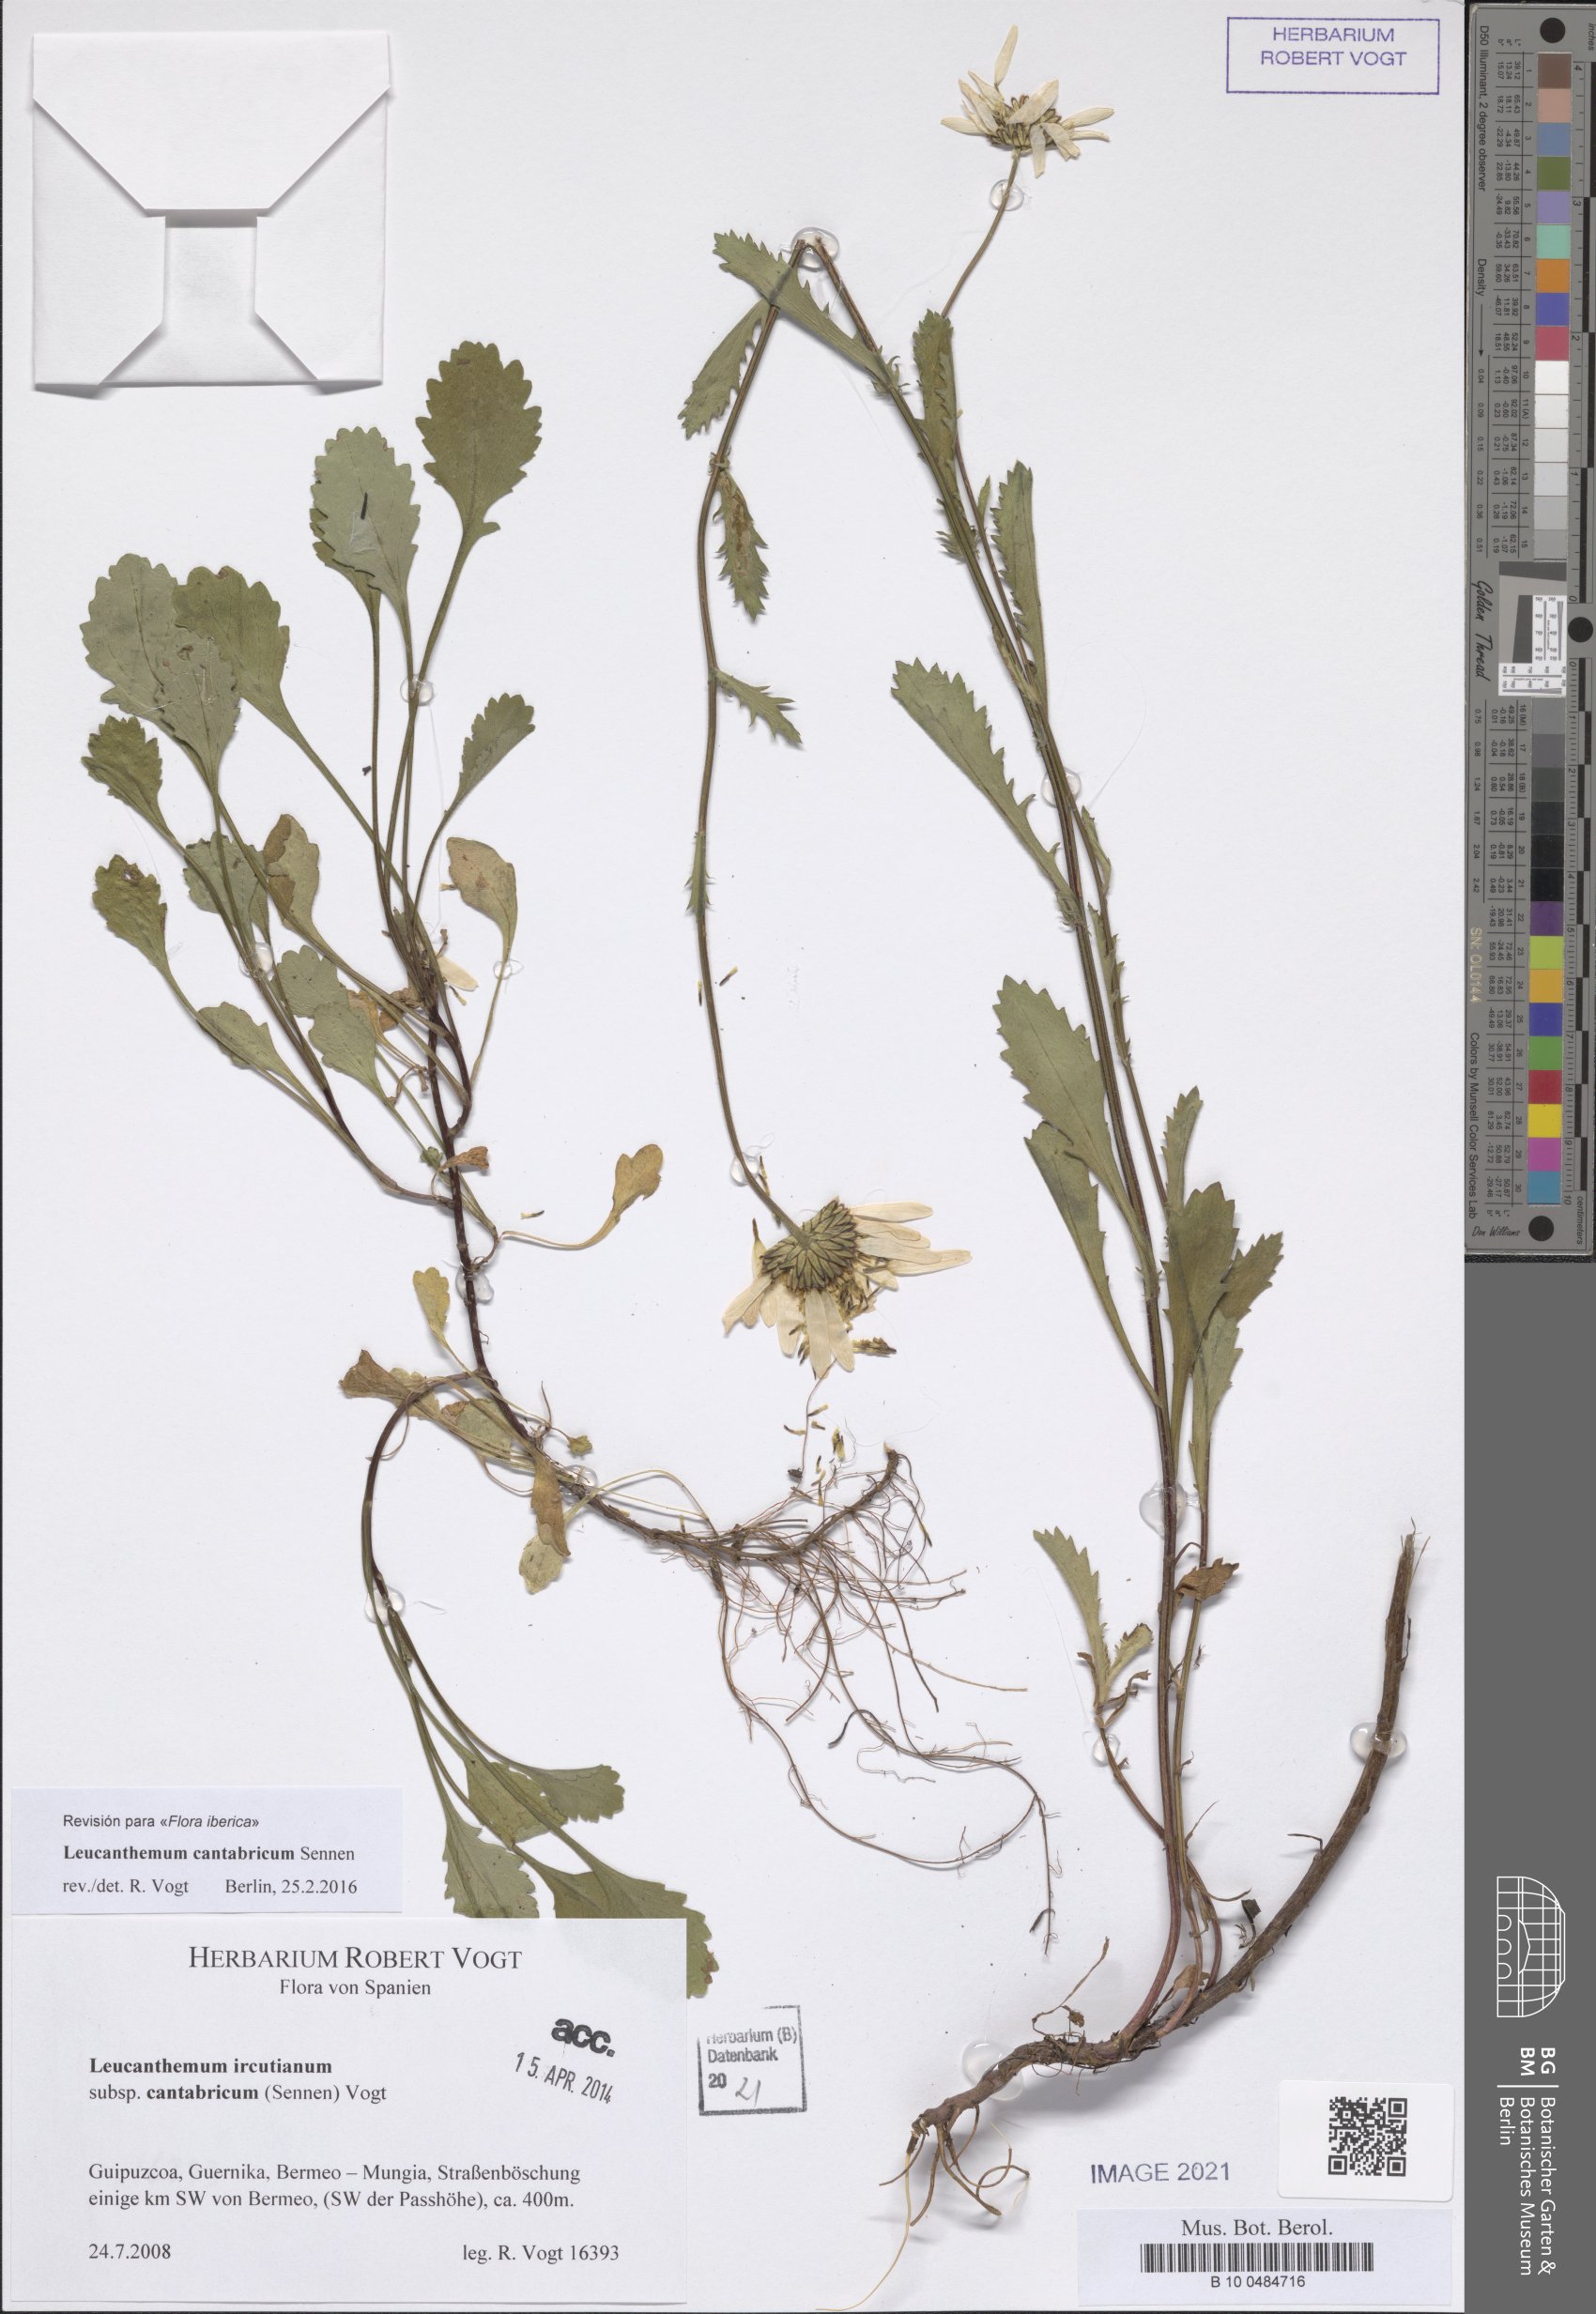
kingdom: Plantae
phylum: Tracheophyta
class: Magnoliopsida
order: Asterales
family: Asteraceae
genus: Leucanthemum
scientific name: Leucanthemum cantabricum
